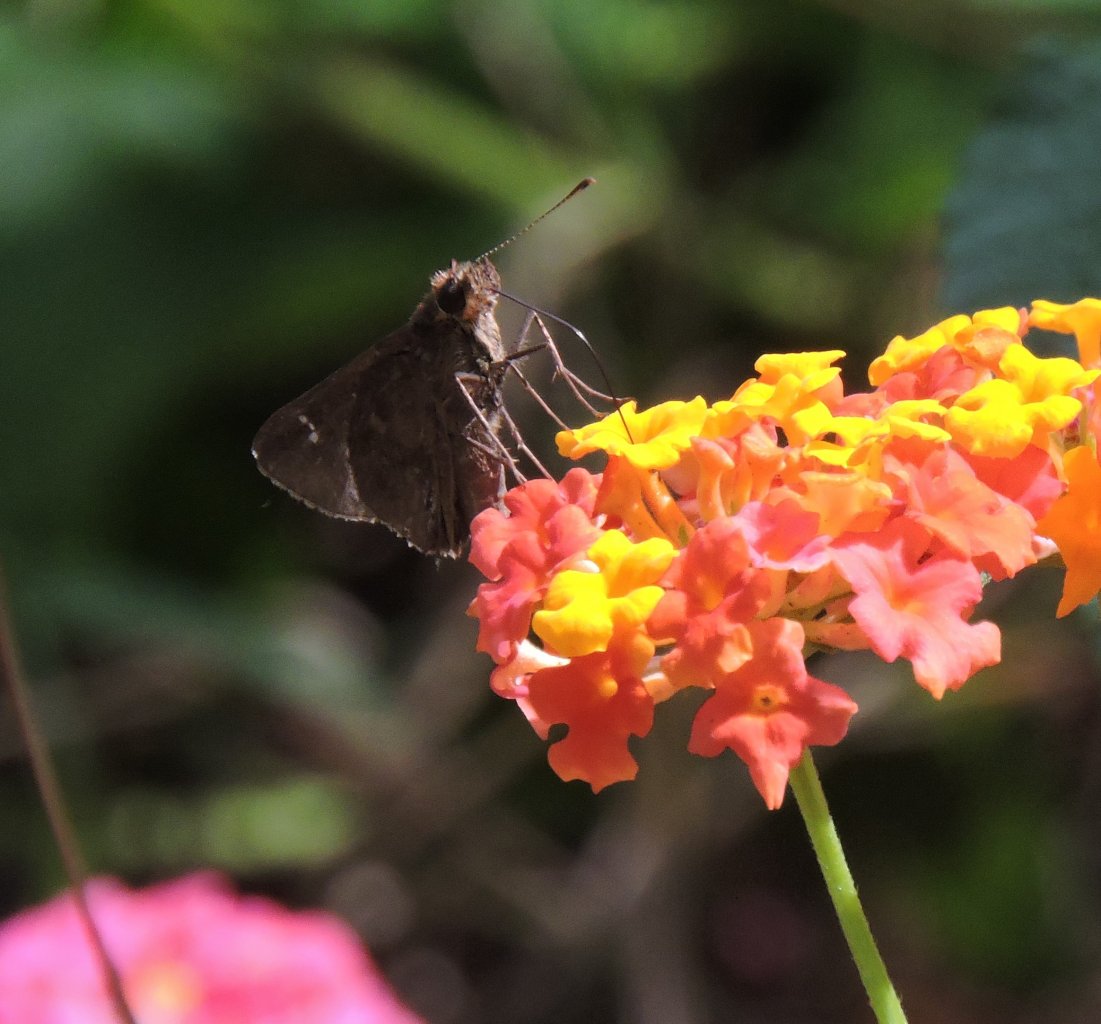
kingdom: Animalia
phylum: Arthropoda
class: Insecta
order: Lepidoptera
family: Hesperiidae
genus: Lerema
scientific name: Lerema accius
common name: Clouded Skipper
